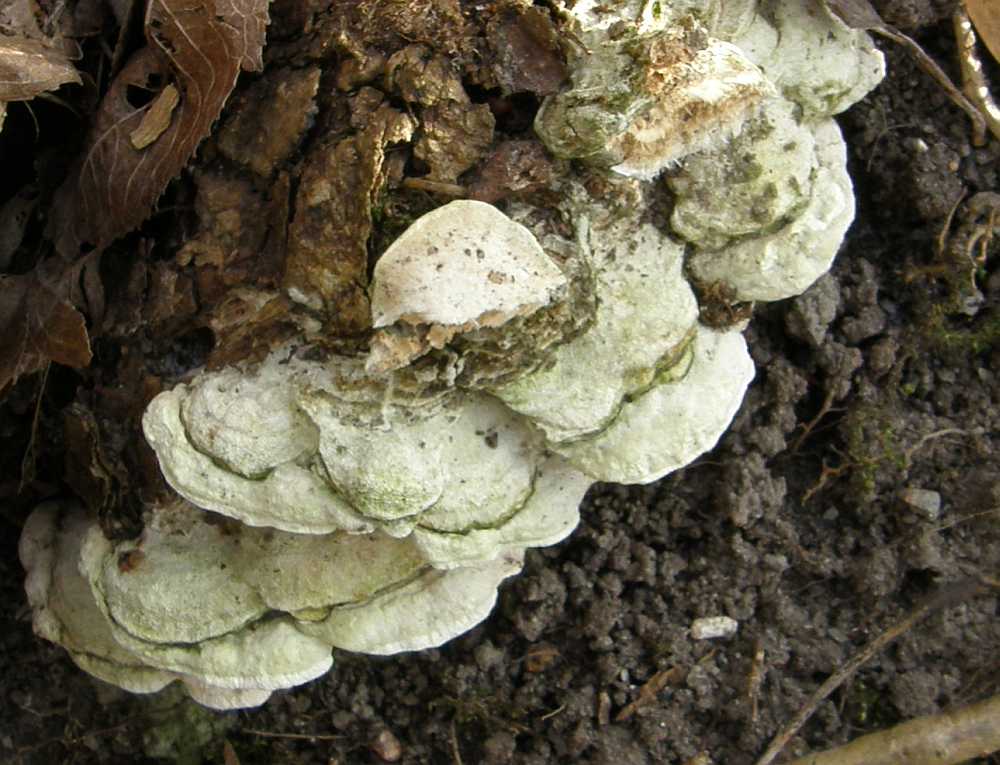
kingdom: Fungi
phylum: Basidiomycota
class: Agaricomycetes
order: Hymenochaetales
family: Oxyporaceae
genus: Oxyporus
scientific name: Oxyporus populinus
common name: sammenvokset trylleporesvamp
